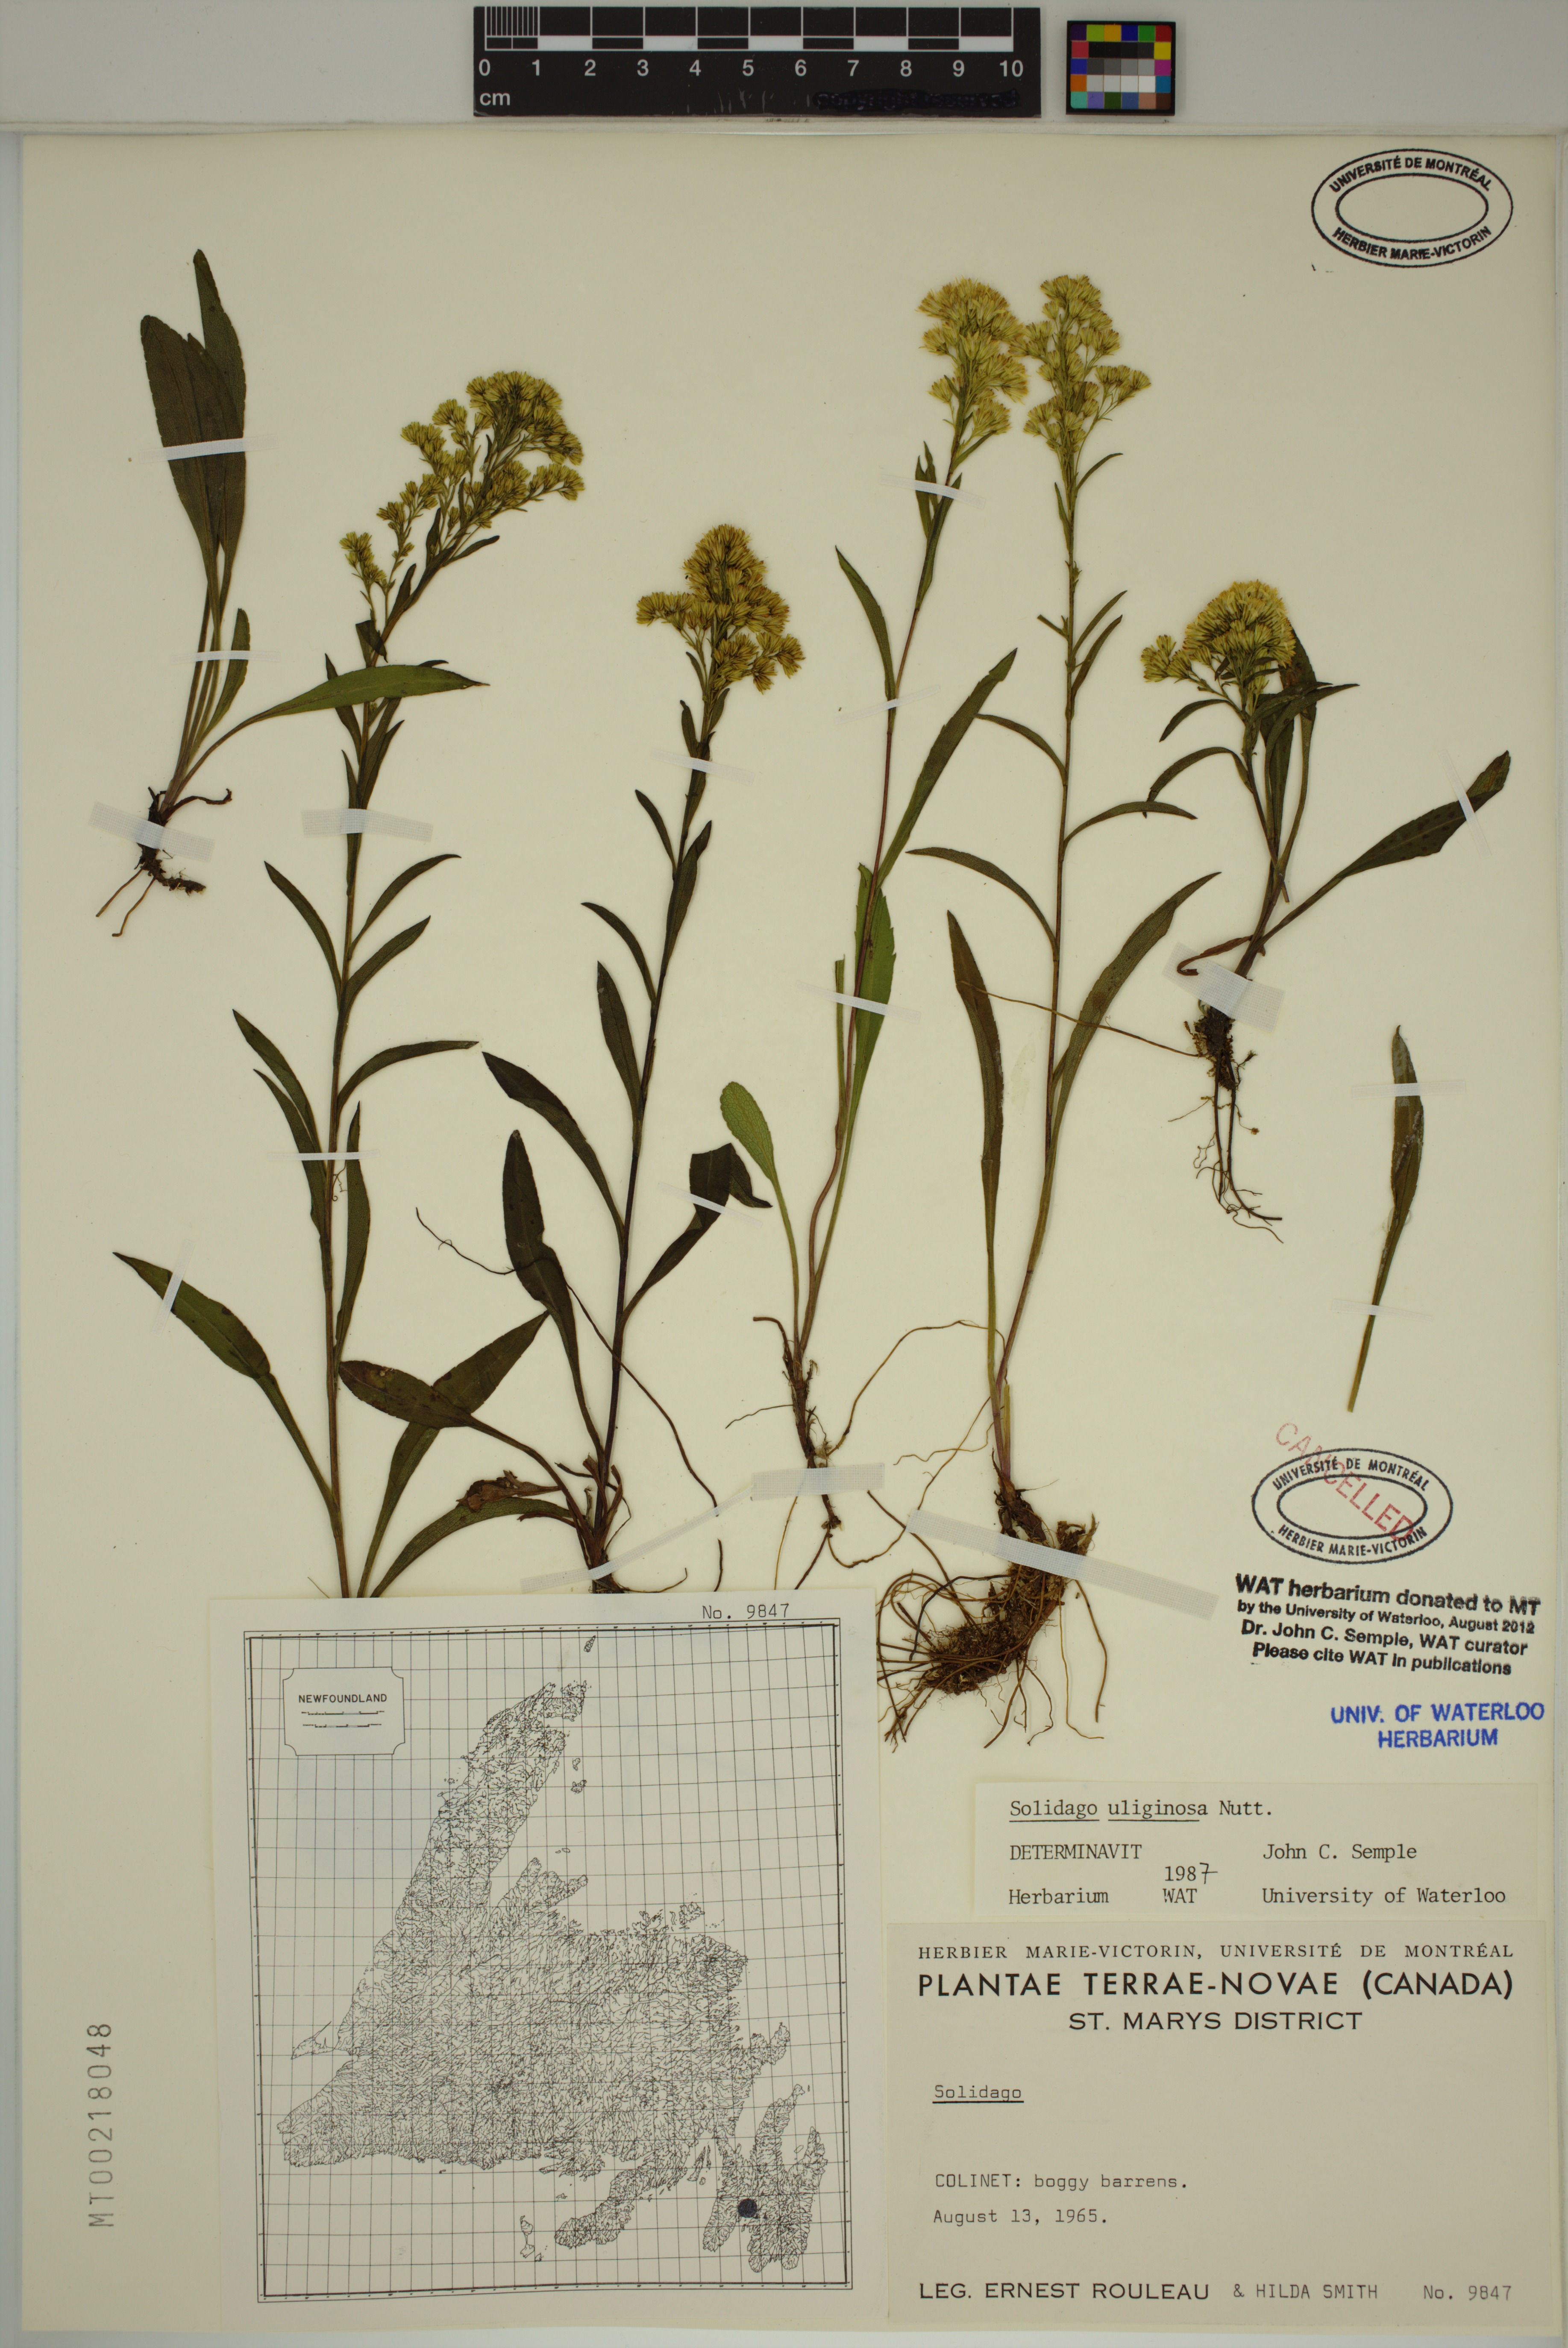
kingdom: Plantae
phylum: Tracheophyta
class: Magnoliopsida
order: Asterales
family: Asteraceae
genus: Solidago
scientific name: Solidago uliginosa
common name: Bog goldenrod
